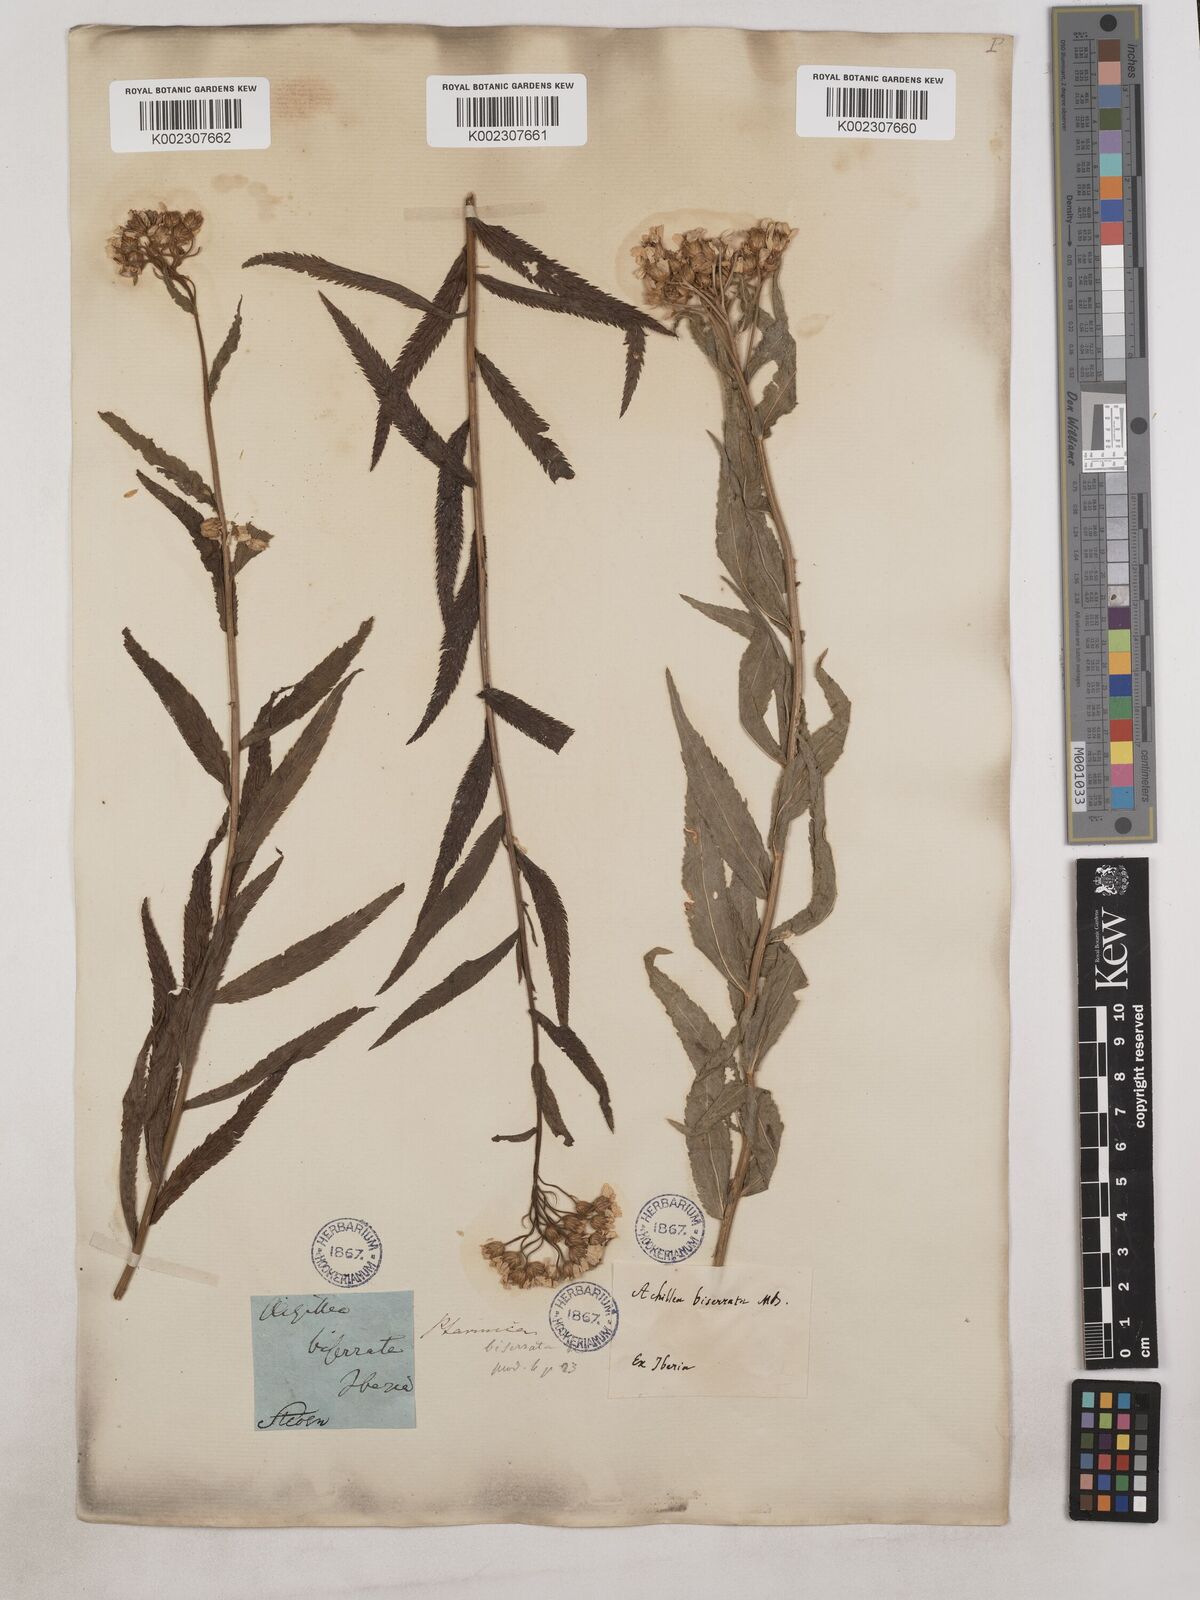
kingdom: Plantae
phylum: Tracheophyta
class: Magnoliopsida
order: Asterales
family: Asteraceae
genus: Achillea
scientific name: Achillea biserrata
